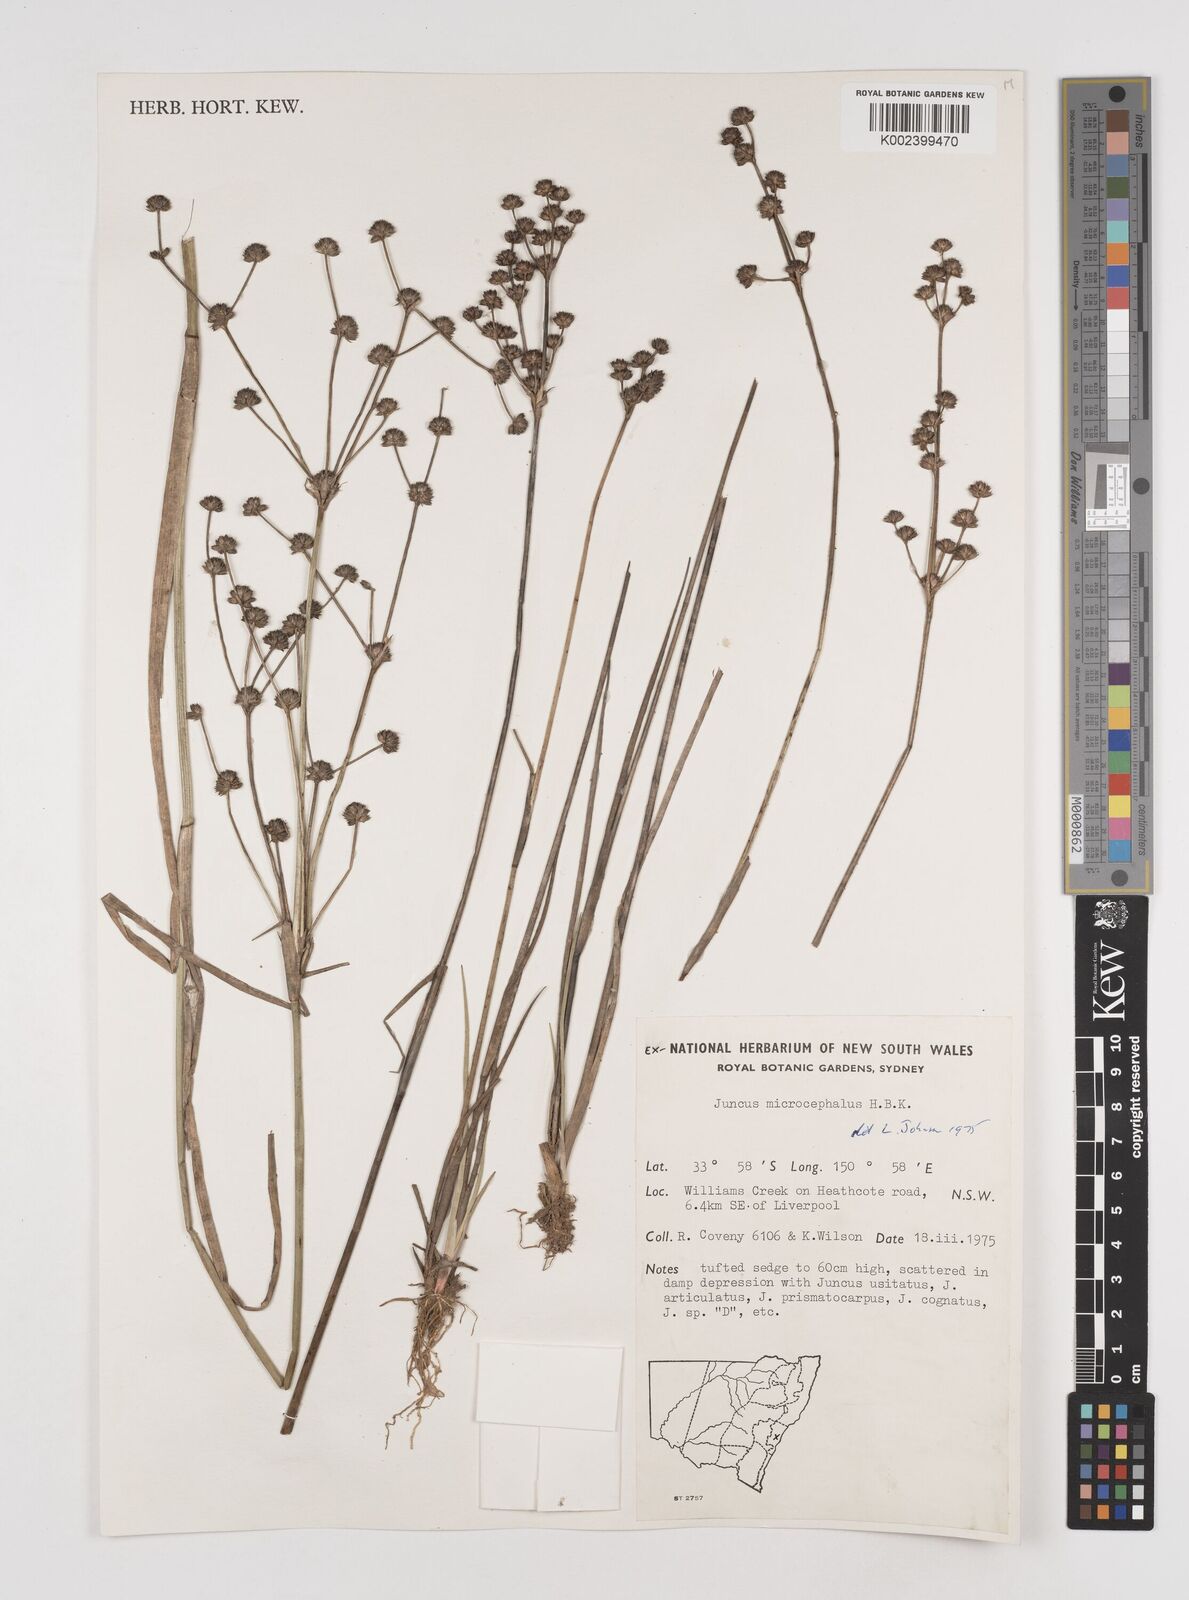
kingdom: Plantae
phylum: Tracheophyta
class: Liliopsida
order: Poales
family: Juncaceae
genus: Juncus
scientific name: Juncus microcephalus
